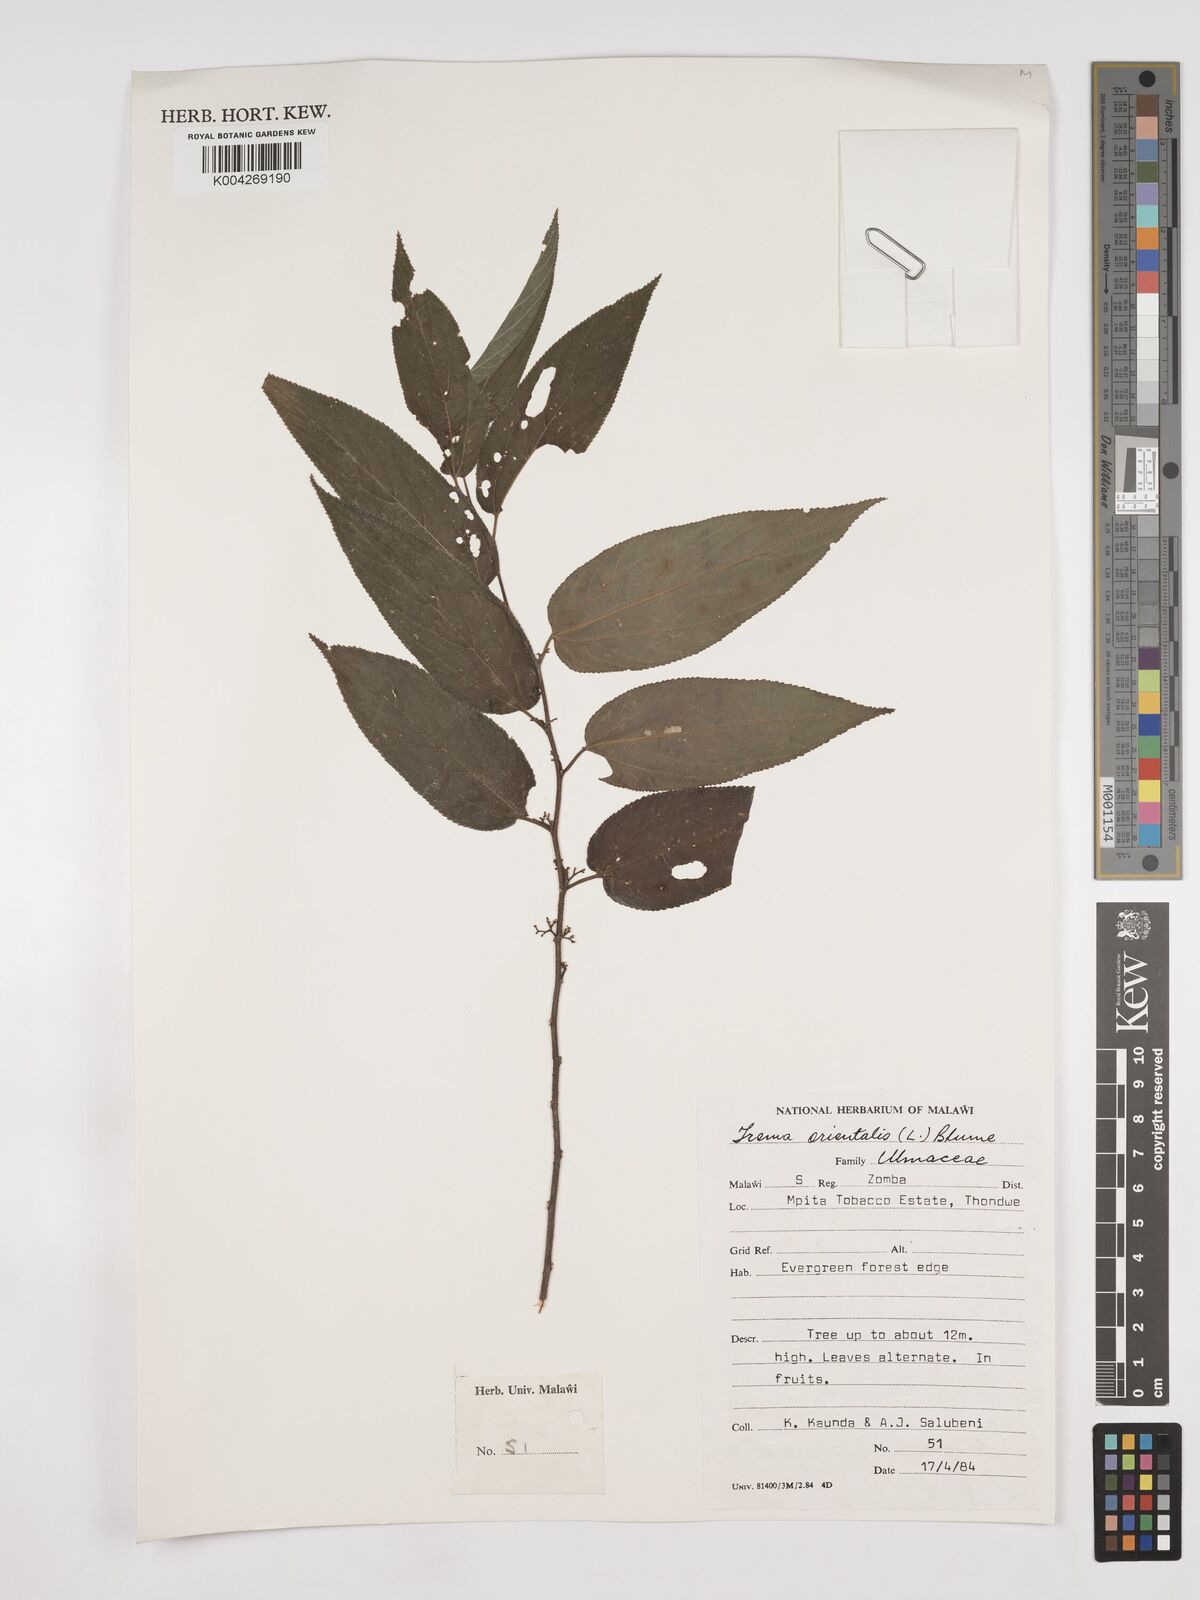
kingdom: Plantae
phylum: Tracheophyta
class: Magnoliopsida
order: Rosales
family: Cannabaceae
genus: Trema
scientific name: Trema orientale
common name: Indian charcoal tree
